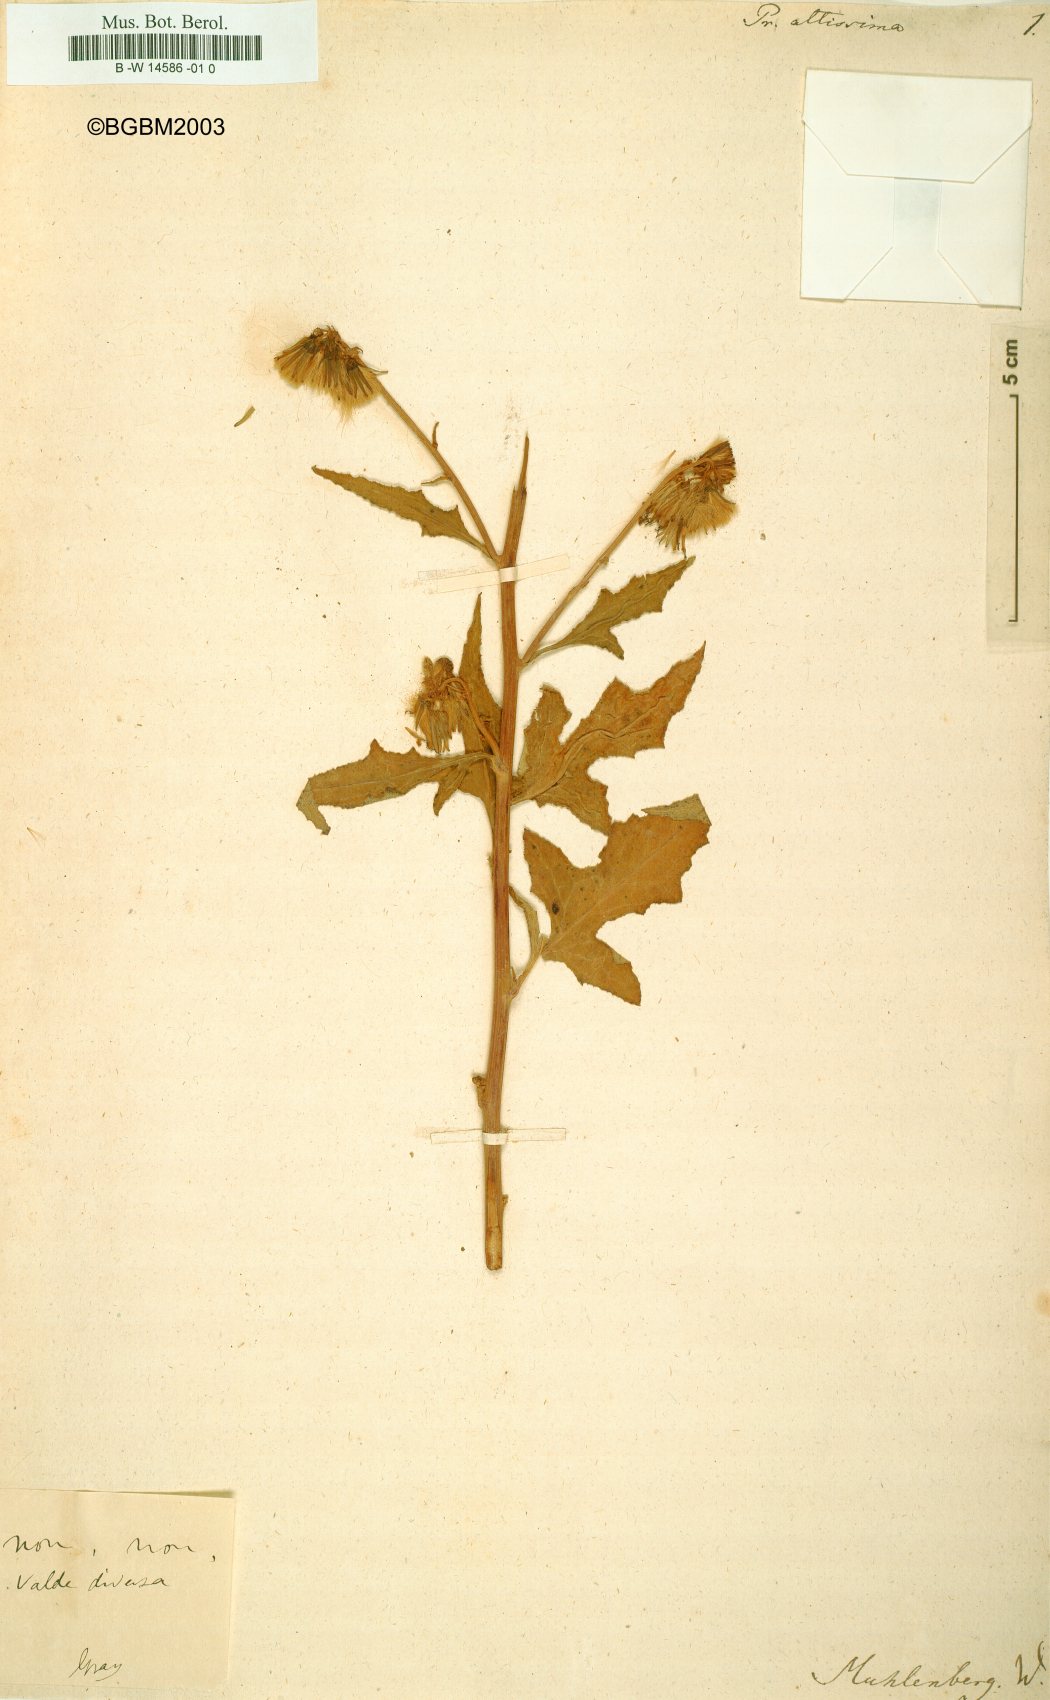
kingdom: Plantae
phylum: Tracheophyta
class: Magnoliopsida
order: Asterales
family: Asteraceae
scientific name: Asteraceae
